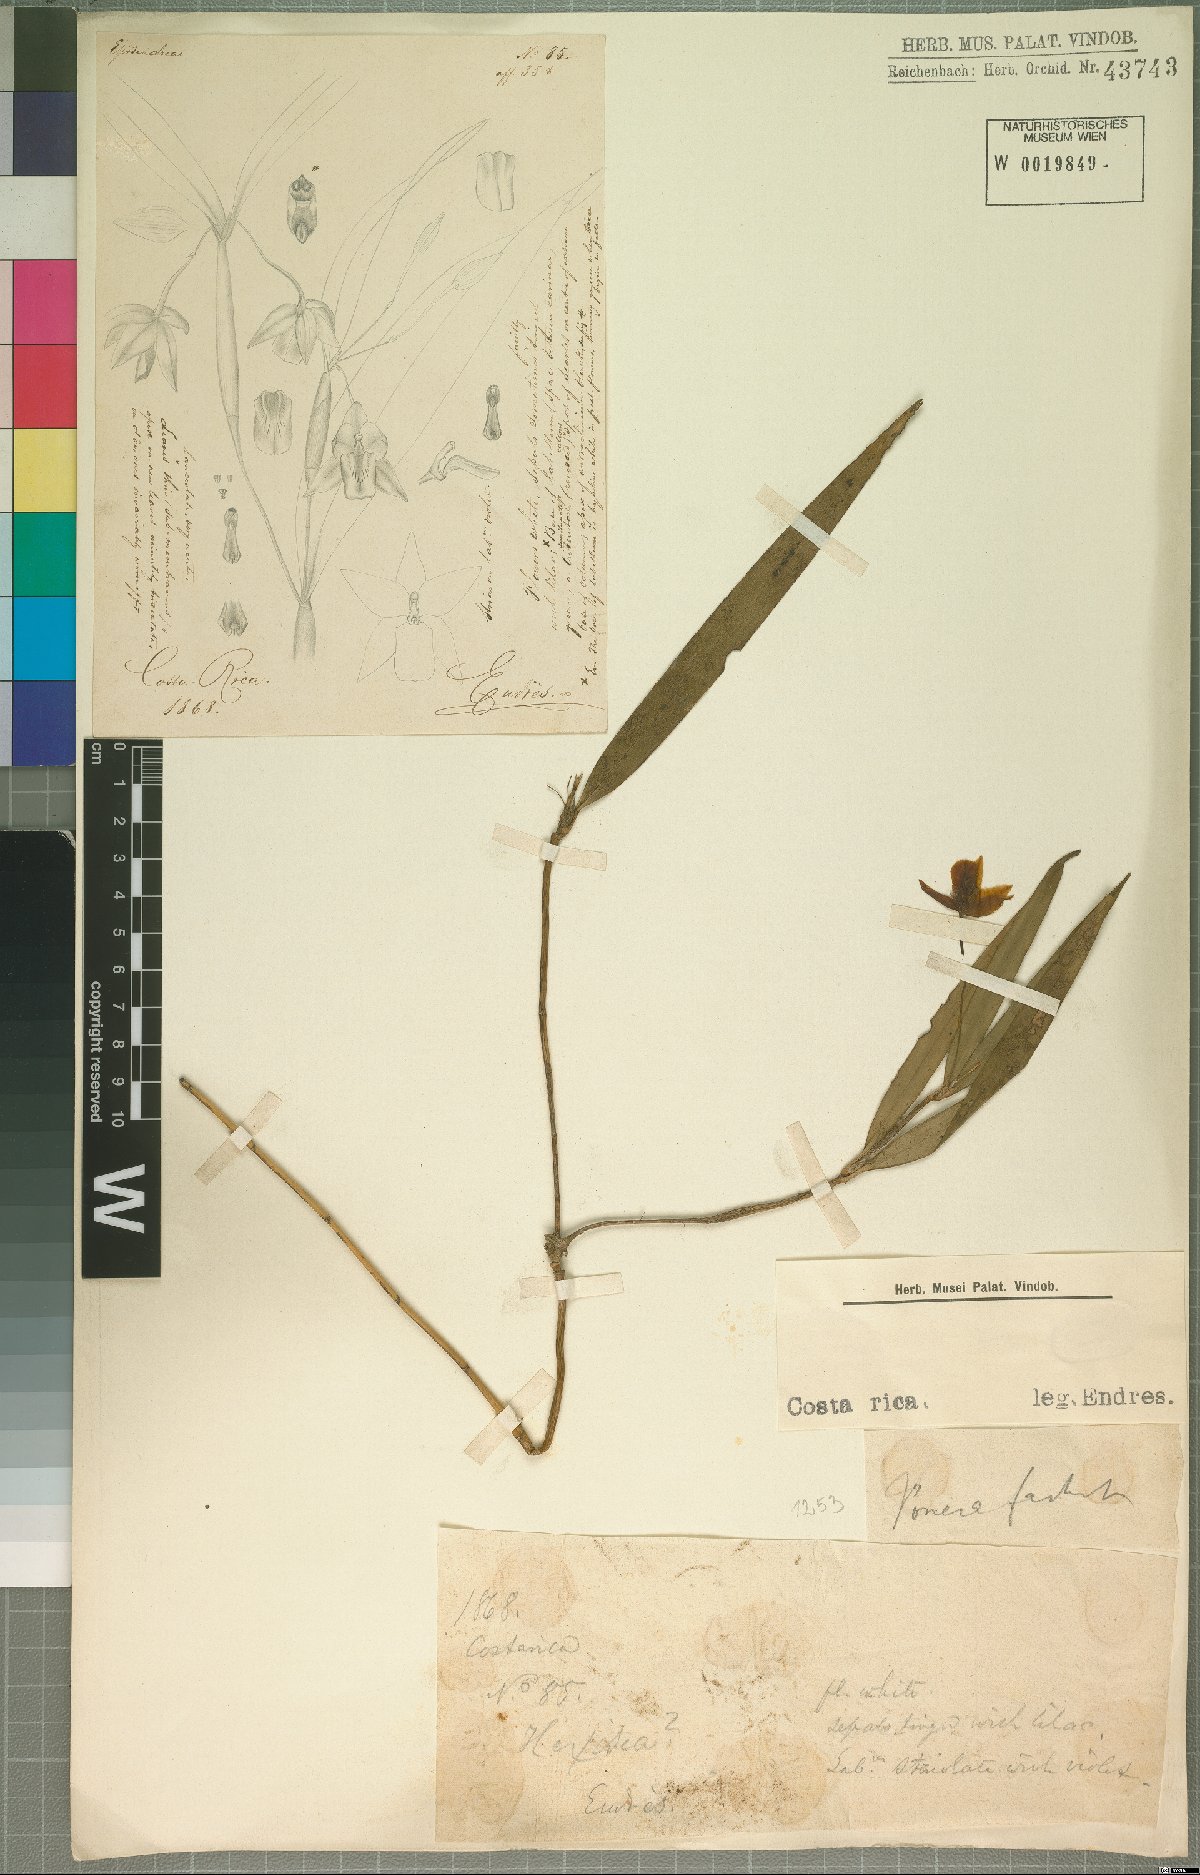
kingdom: Plantae
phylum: Tracheophyta
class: Liliopsida
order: Asparagales
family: Orchidaceae
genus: Ponera
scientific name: Ponera
